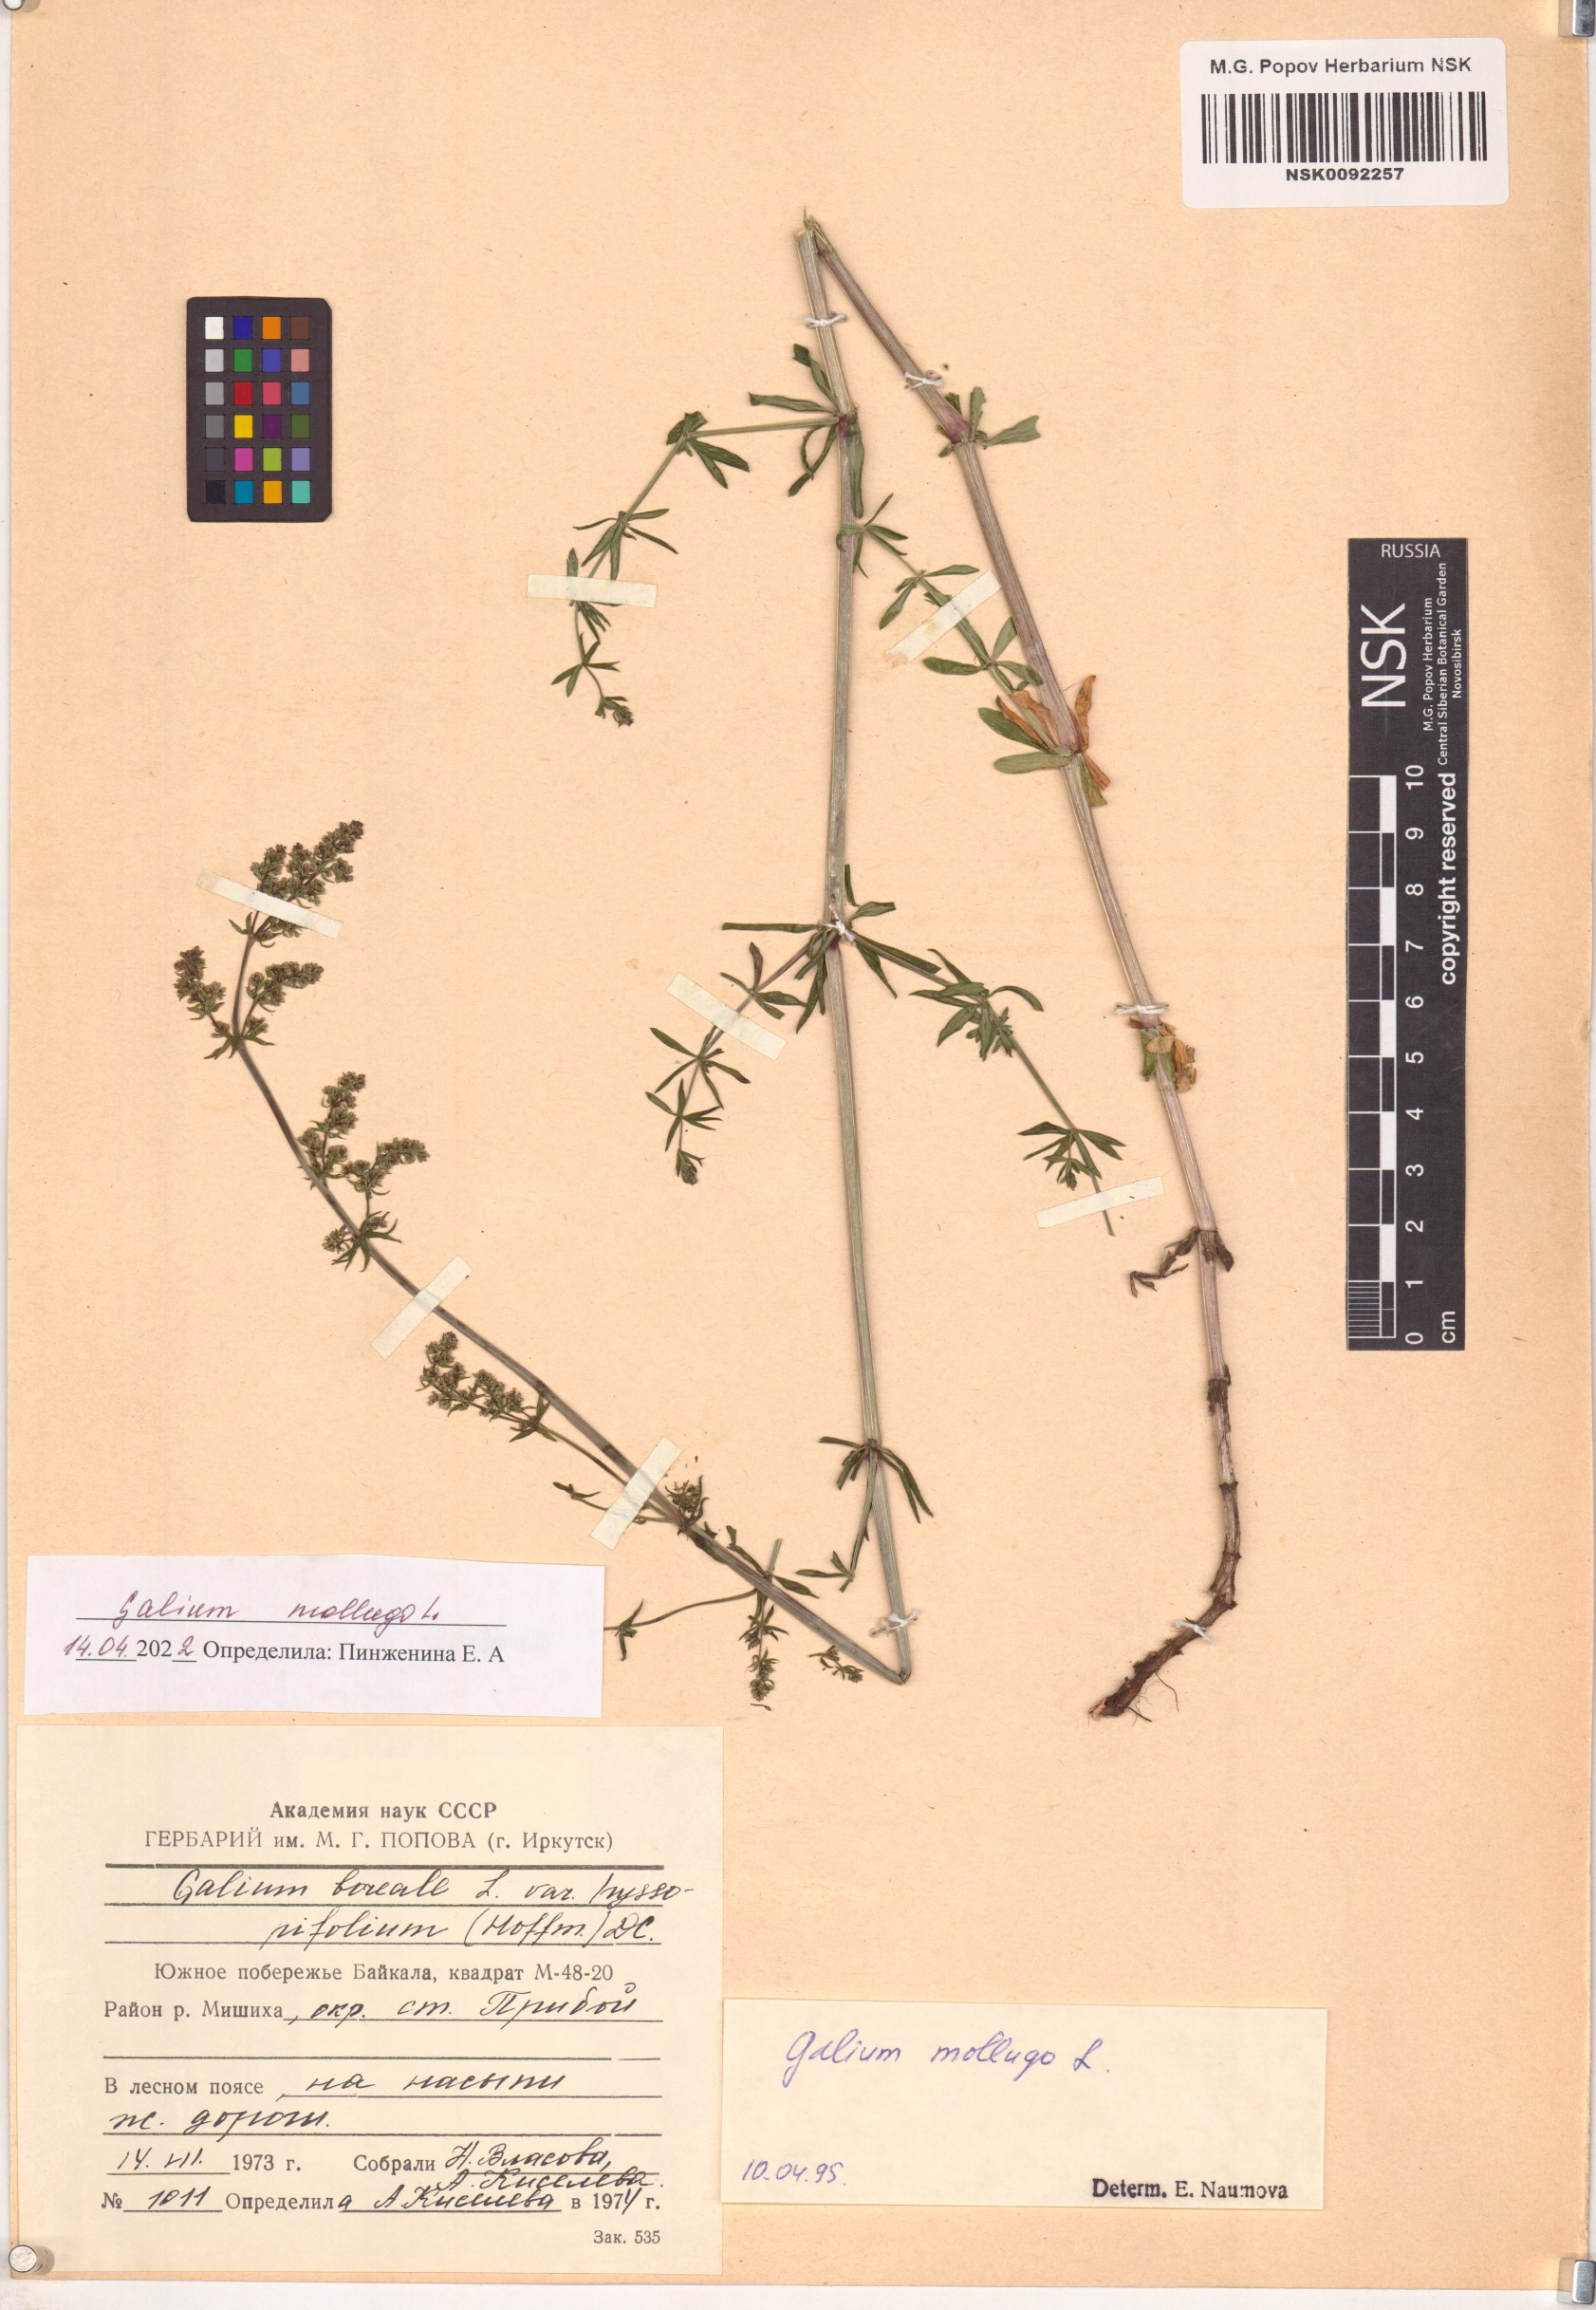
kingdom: Plantae
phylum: Tracheophyta
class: Magnoliopsida
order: Gentianales
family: Rubiaceae
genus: Galium
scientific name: Galium mollugo
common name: Hedge bedstraw
